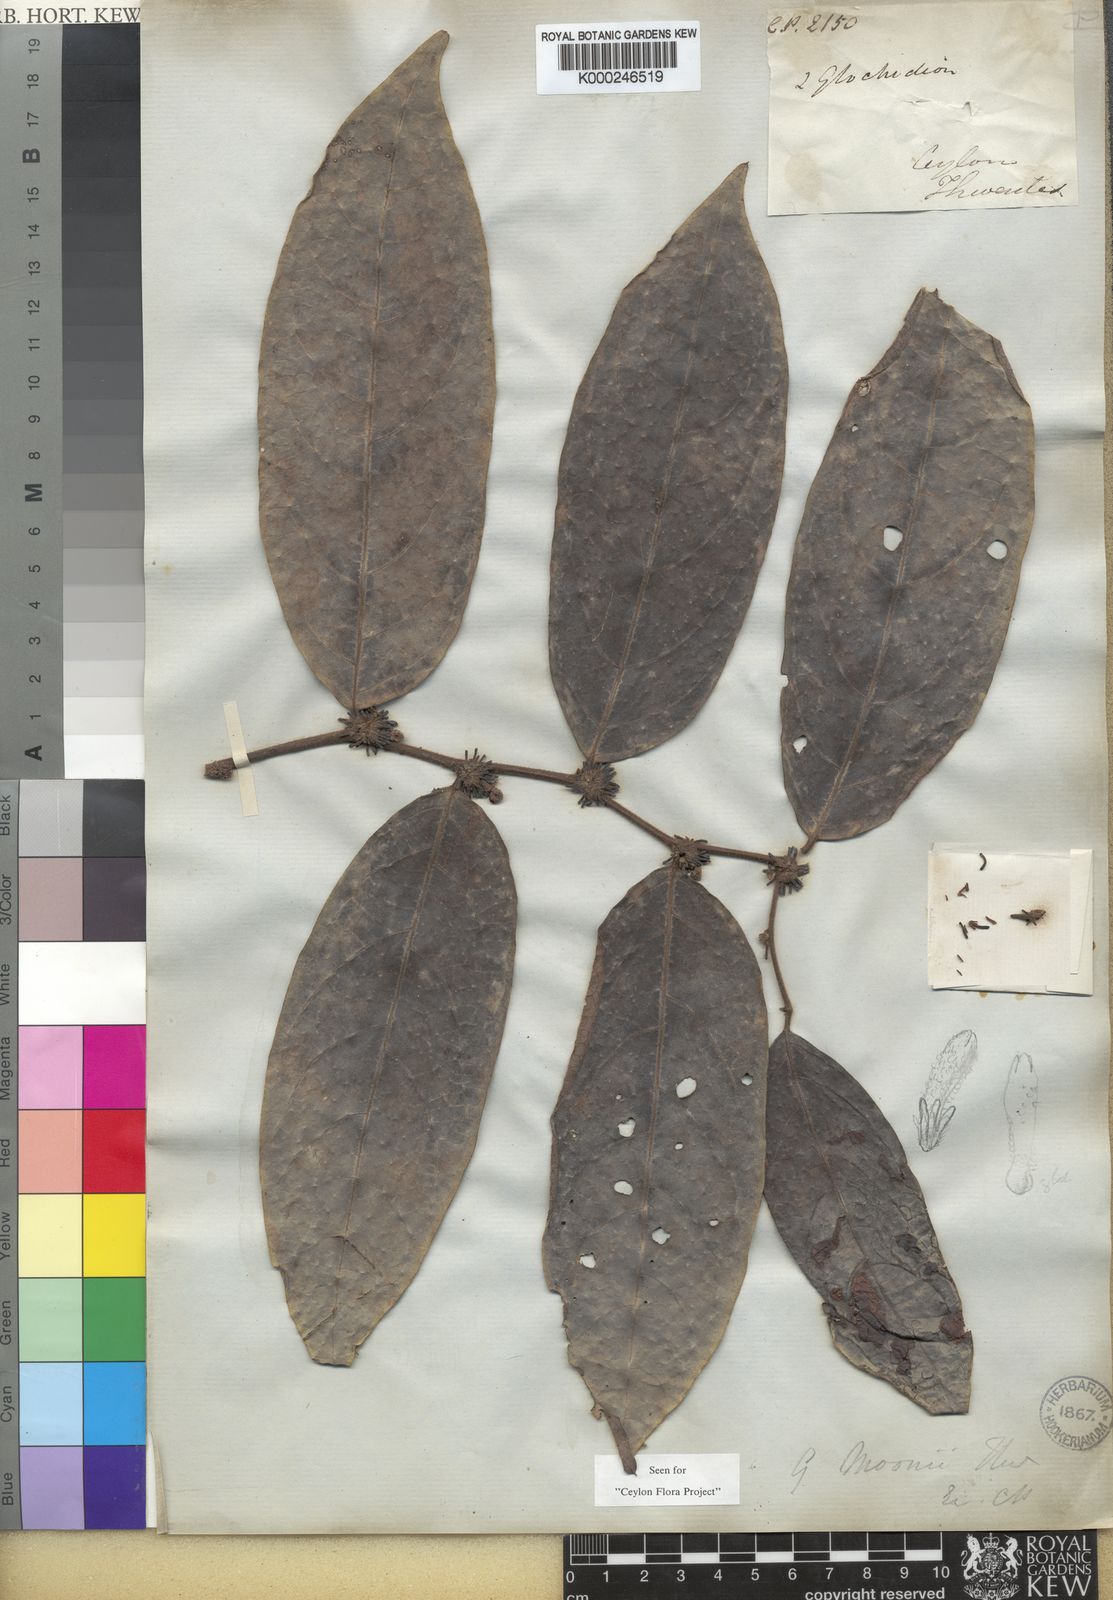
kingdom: Plantae
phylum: Tracheophyta
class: Magnoliopsida
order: Malpighiales
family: Phyllanthaceae
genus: Glochidion
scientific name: Glochidion moonii
